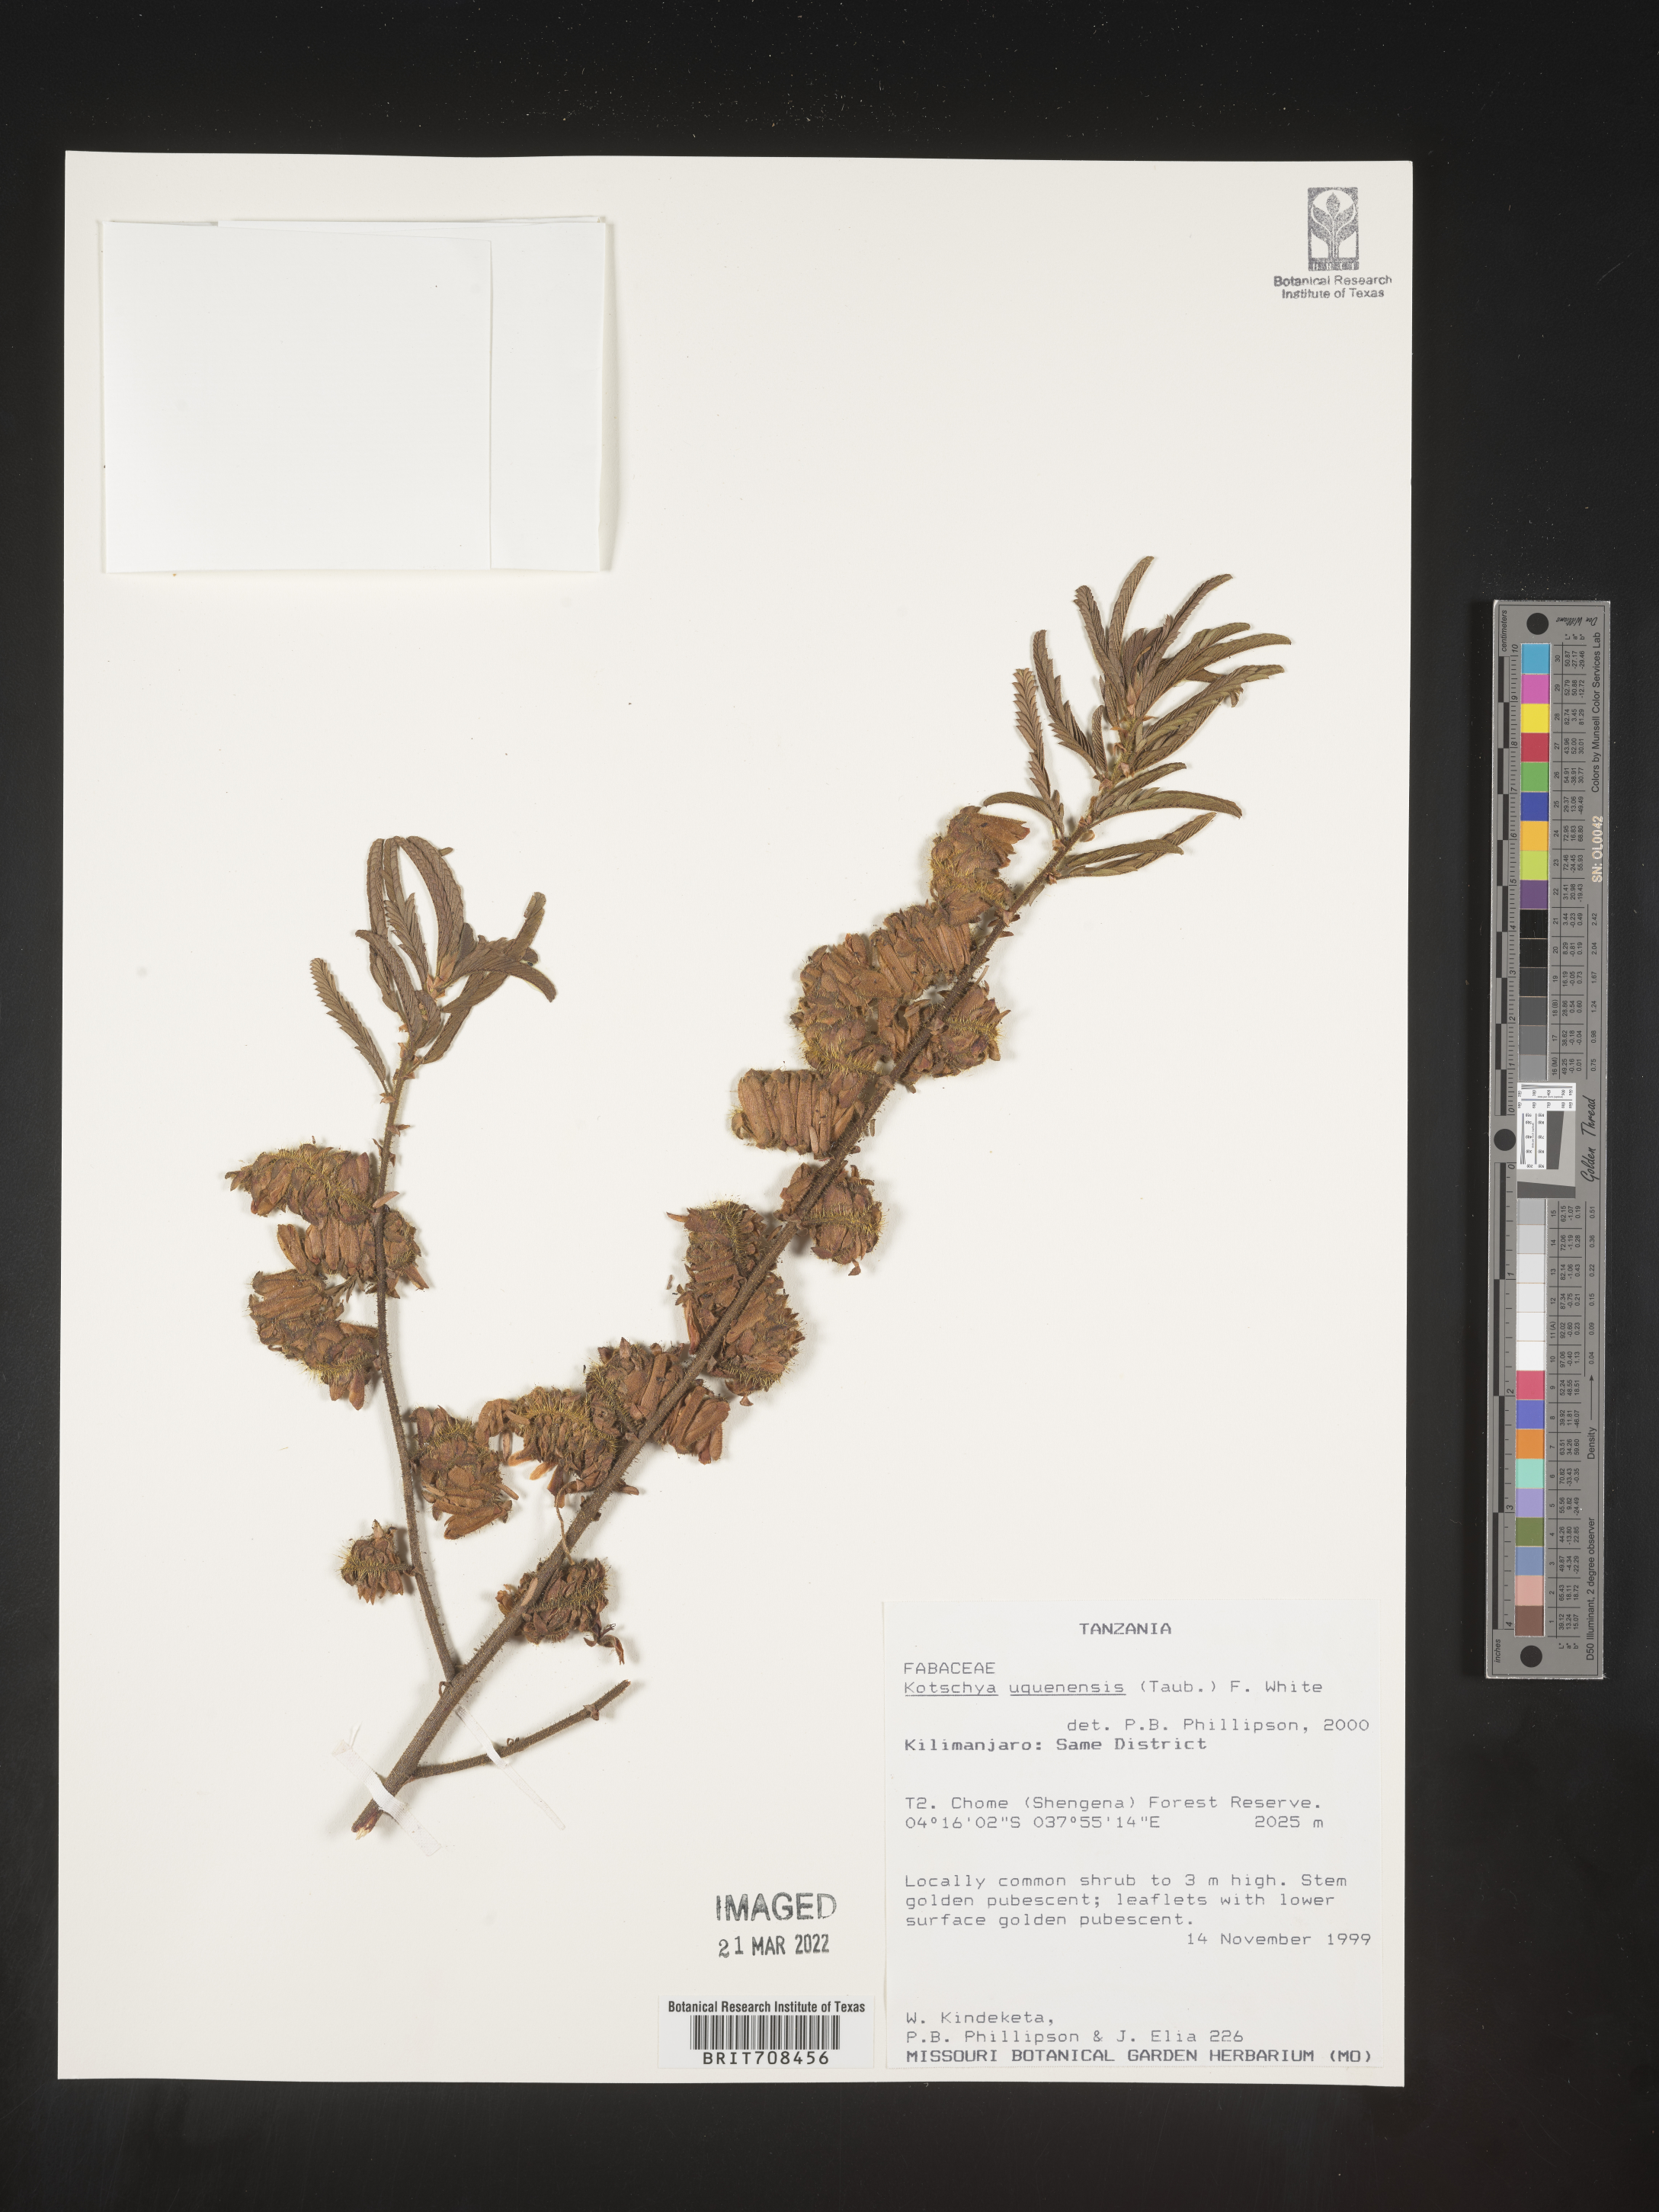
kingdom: Plantae
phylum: Tracheophyta
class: Magnoliopsida
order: Fabales
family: Fabaceae
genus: Kotschya
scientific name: Kotschya
